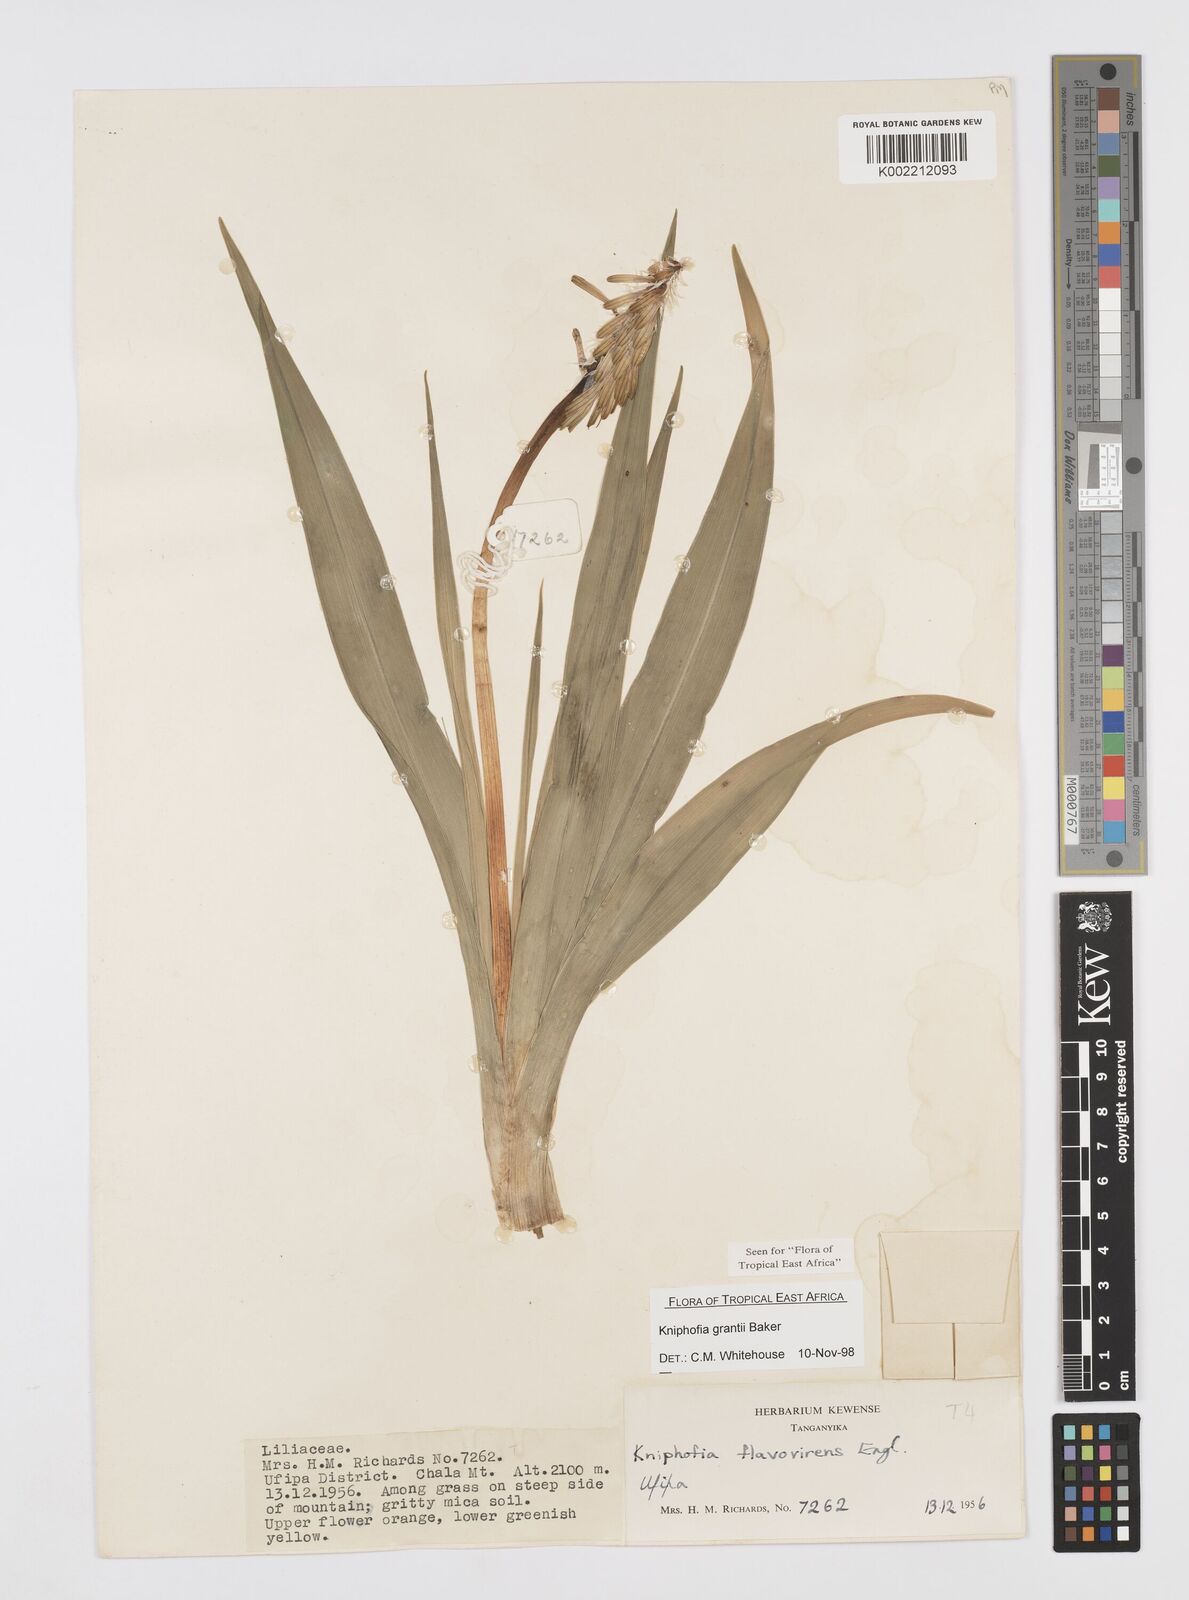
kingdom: Plantae
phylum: Tracheophyta
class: Liliopsida
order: Asparagales
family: Asphodelaceae
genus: Kniphofia
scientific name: Kniphofia grantii
